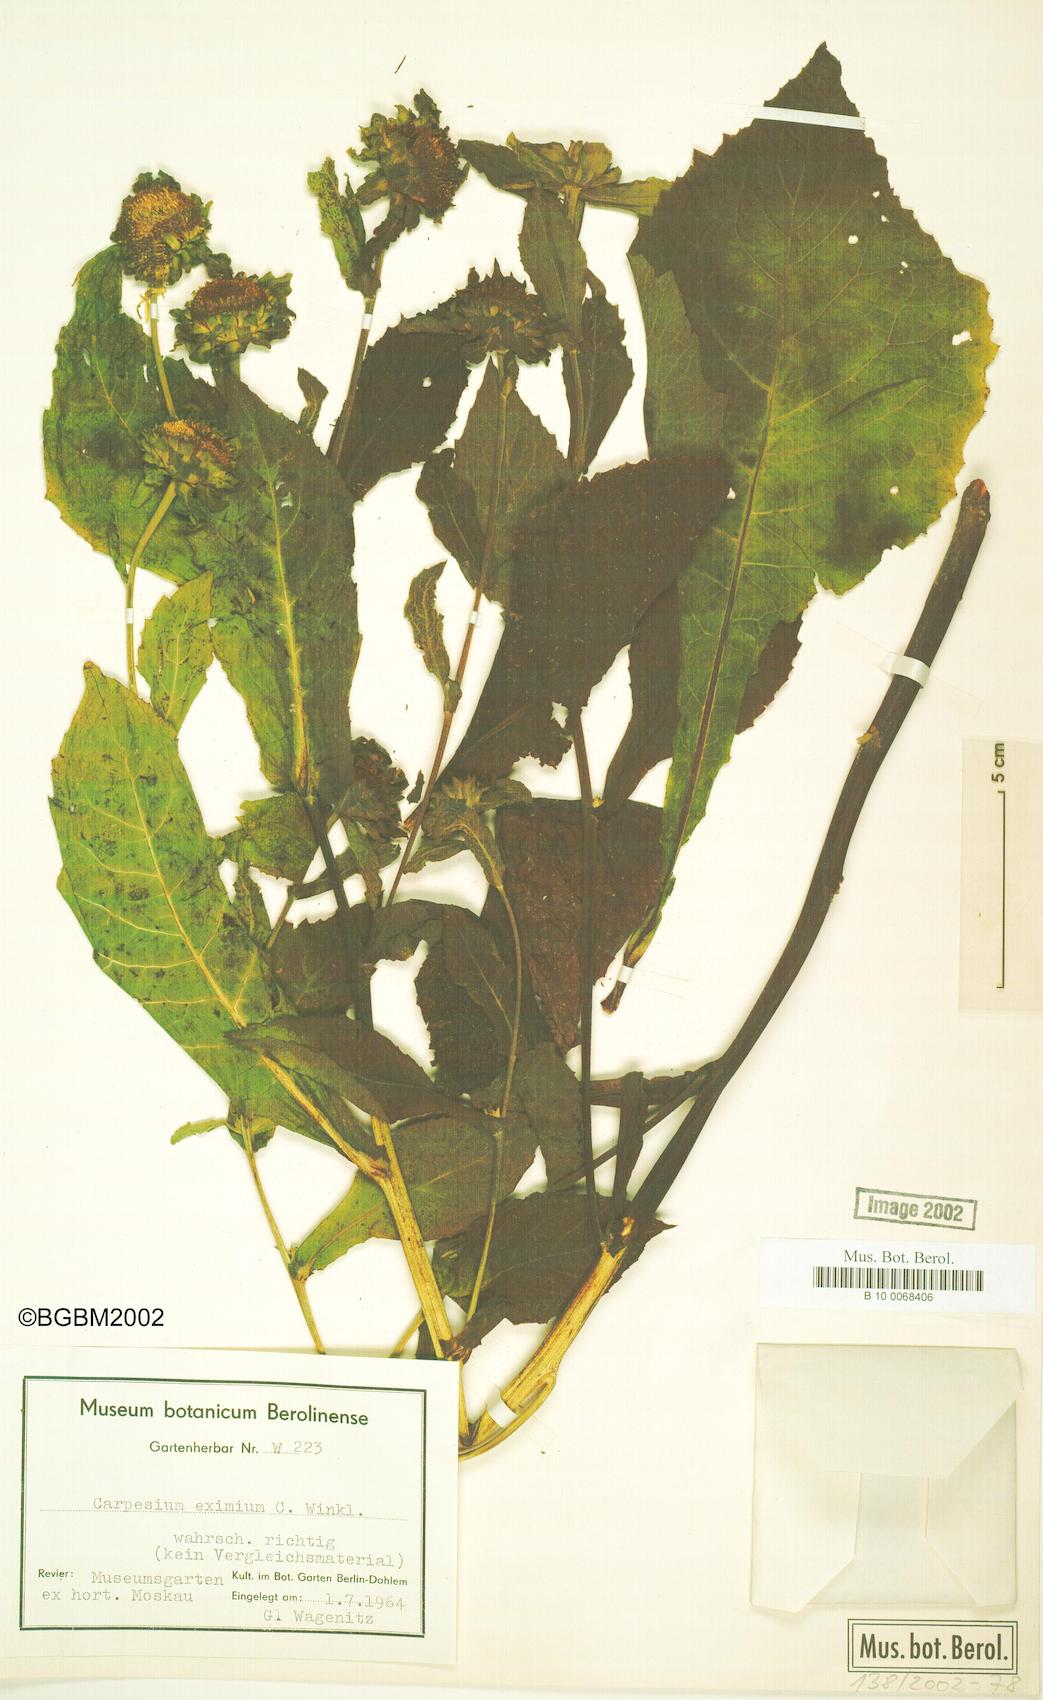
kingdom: Plantae
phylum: Tracheophyta
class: Magnoliopsida
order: Asterales
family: Asteraceae
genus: Carpesium
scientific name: Carpesium macrocephalum
